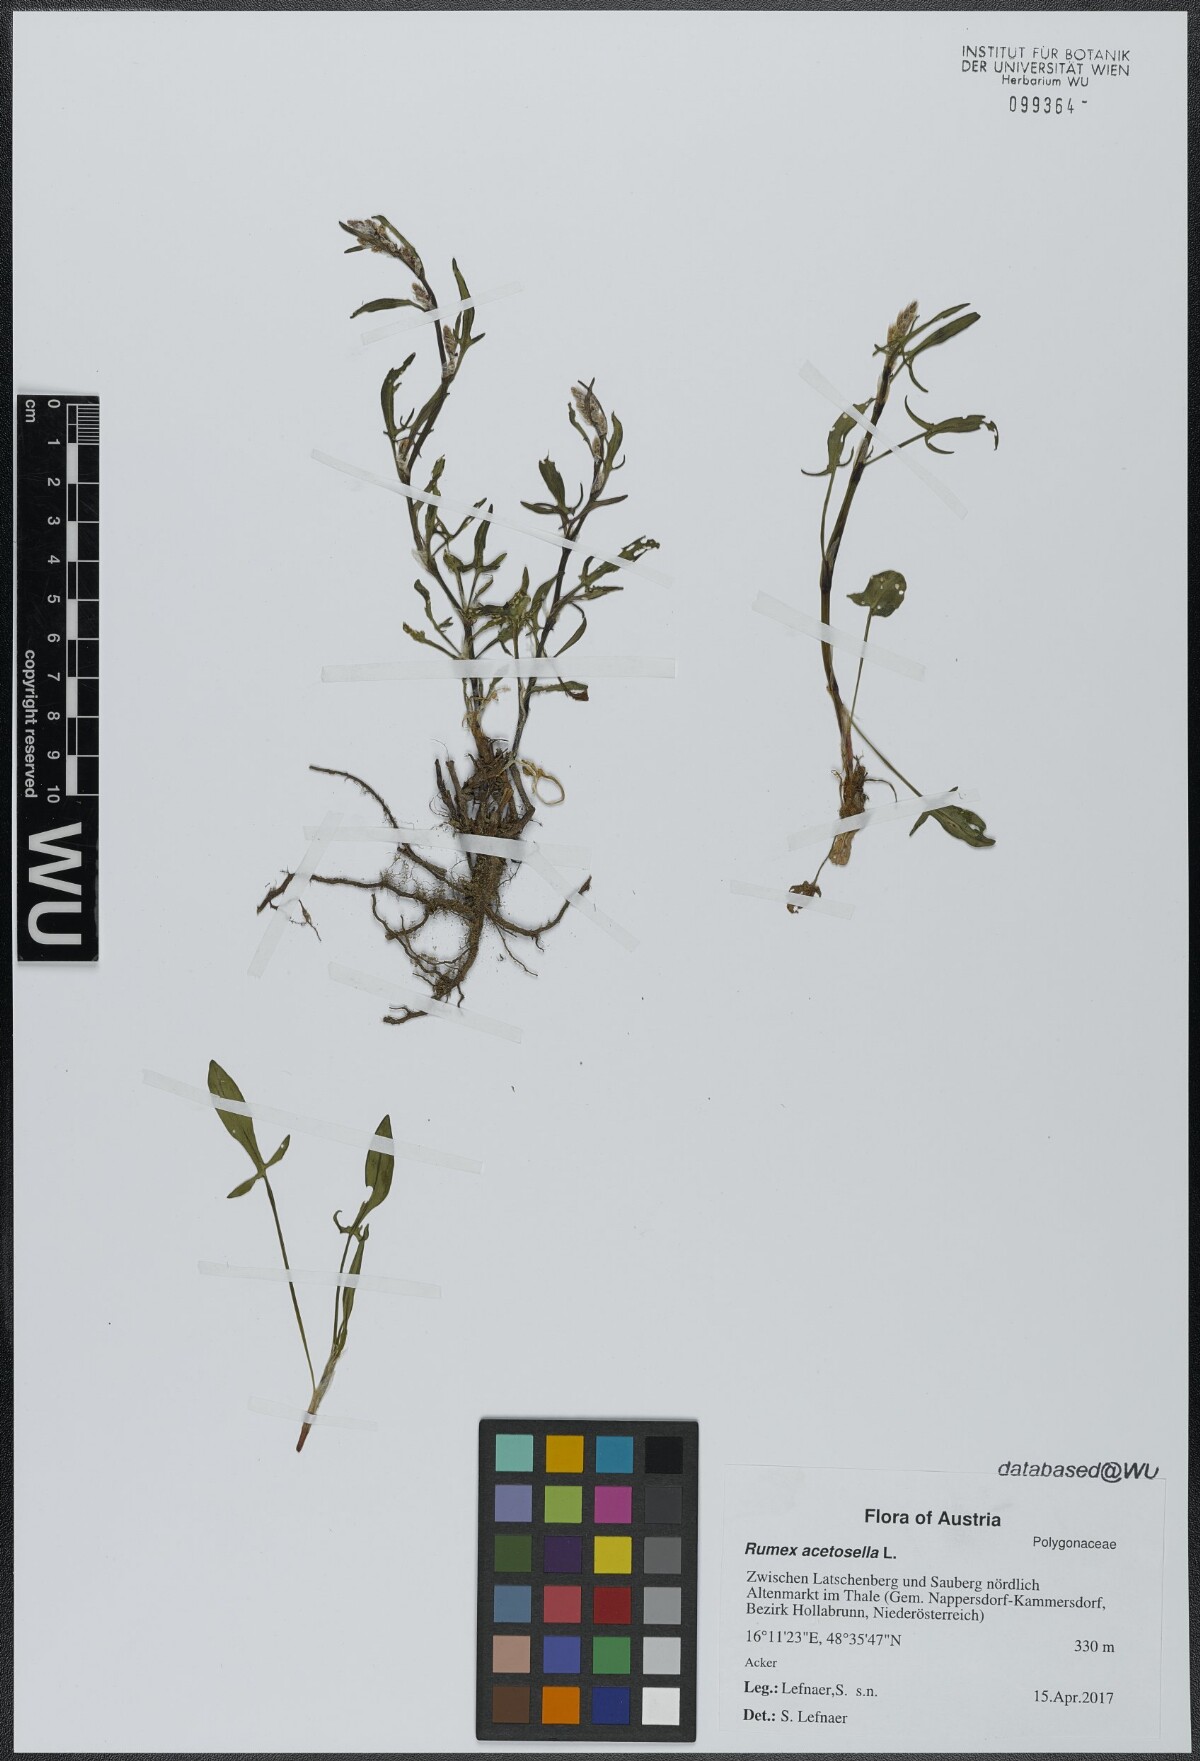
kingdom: Plantae
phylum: Tracheophyta
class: Magnoliopsida
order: Caryophyllales
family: Polygonaceae
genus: Rumex
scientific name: Rumex acetosella
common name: Common sheep sorrel
